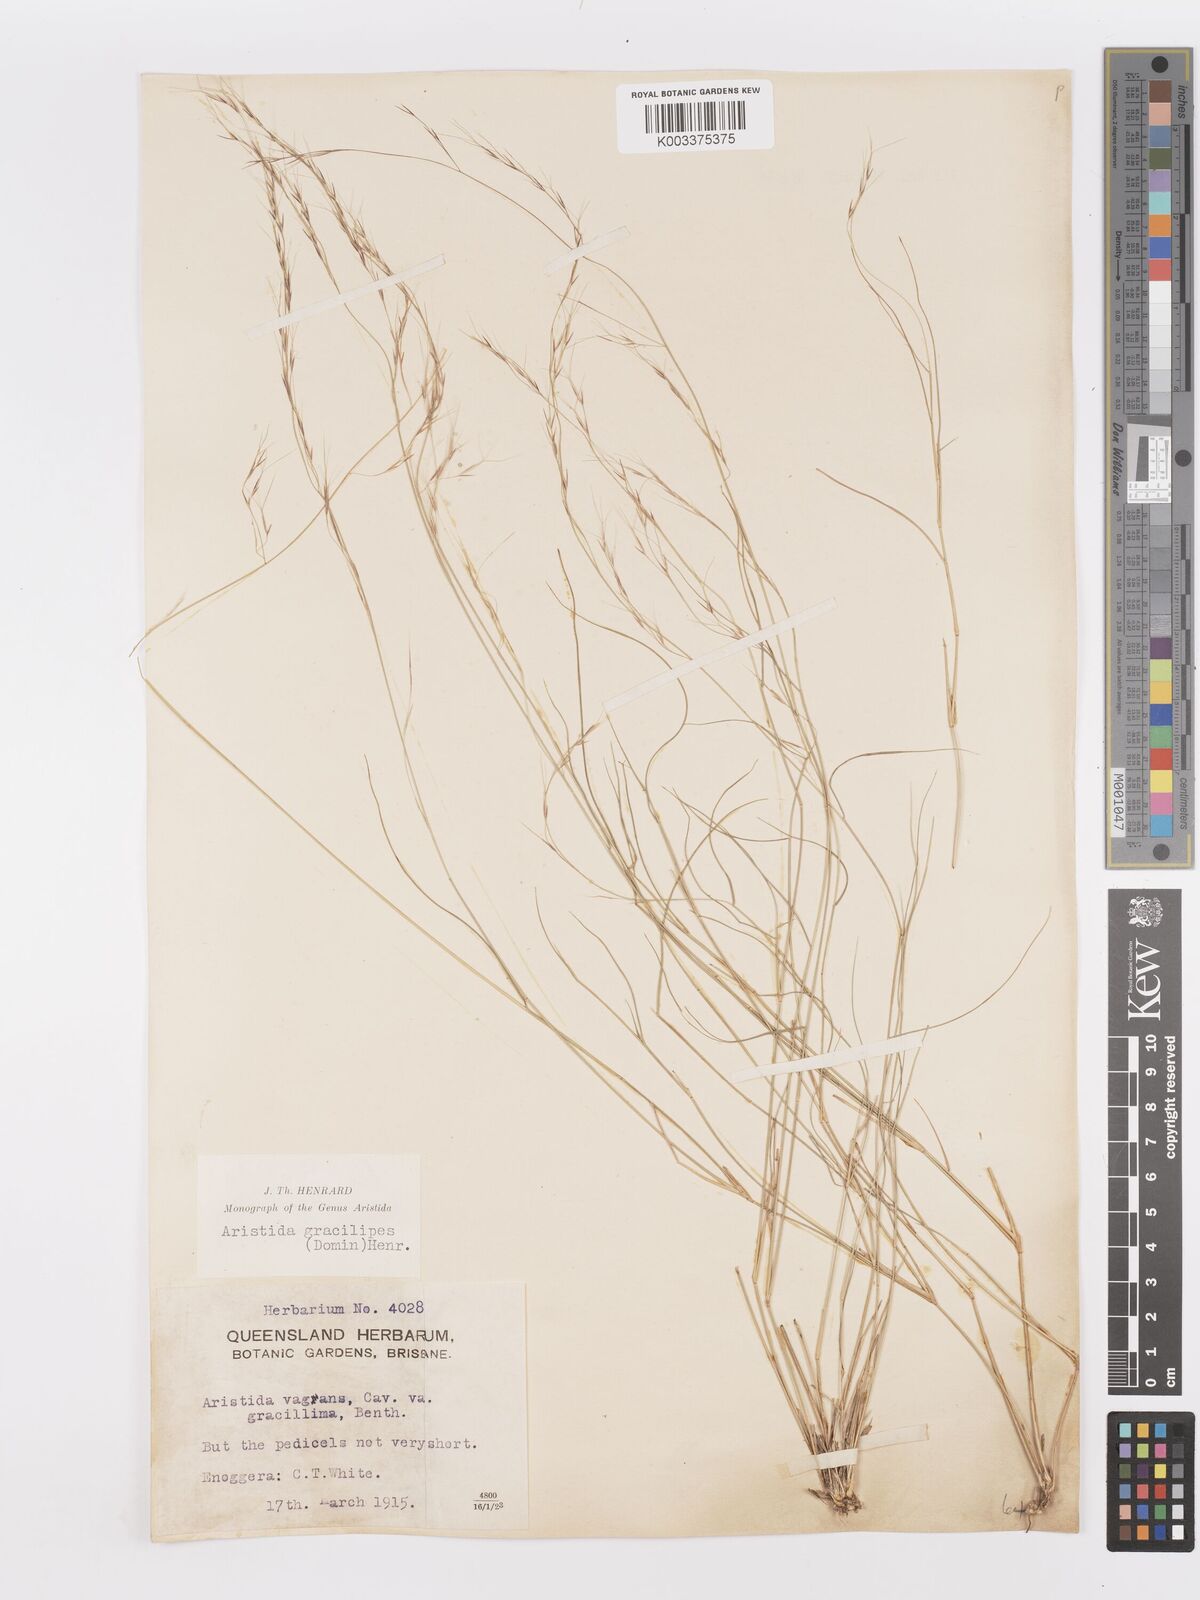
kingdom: Plantae
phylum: Tracheophyta
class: Liliopsida
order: Poales
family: Poaceae
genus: Aristida
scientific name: Aristida gracilipes
